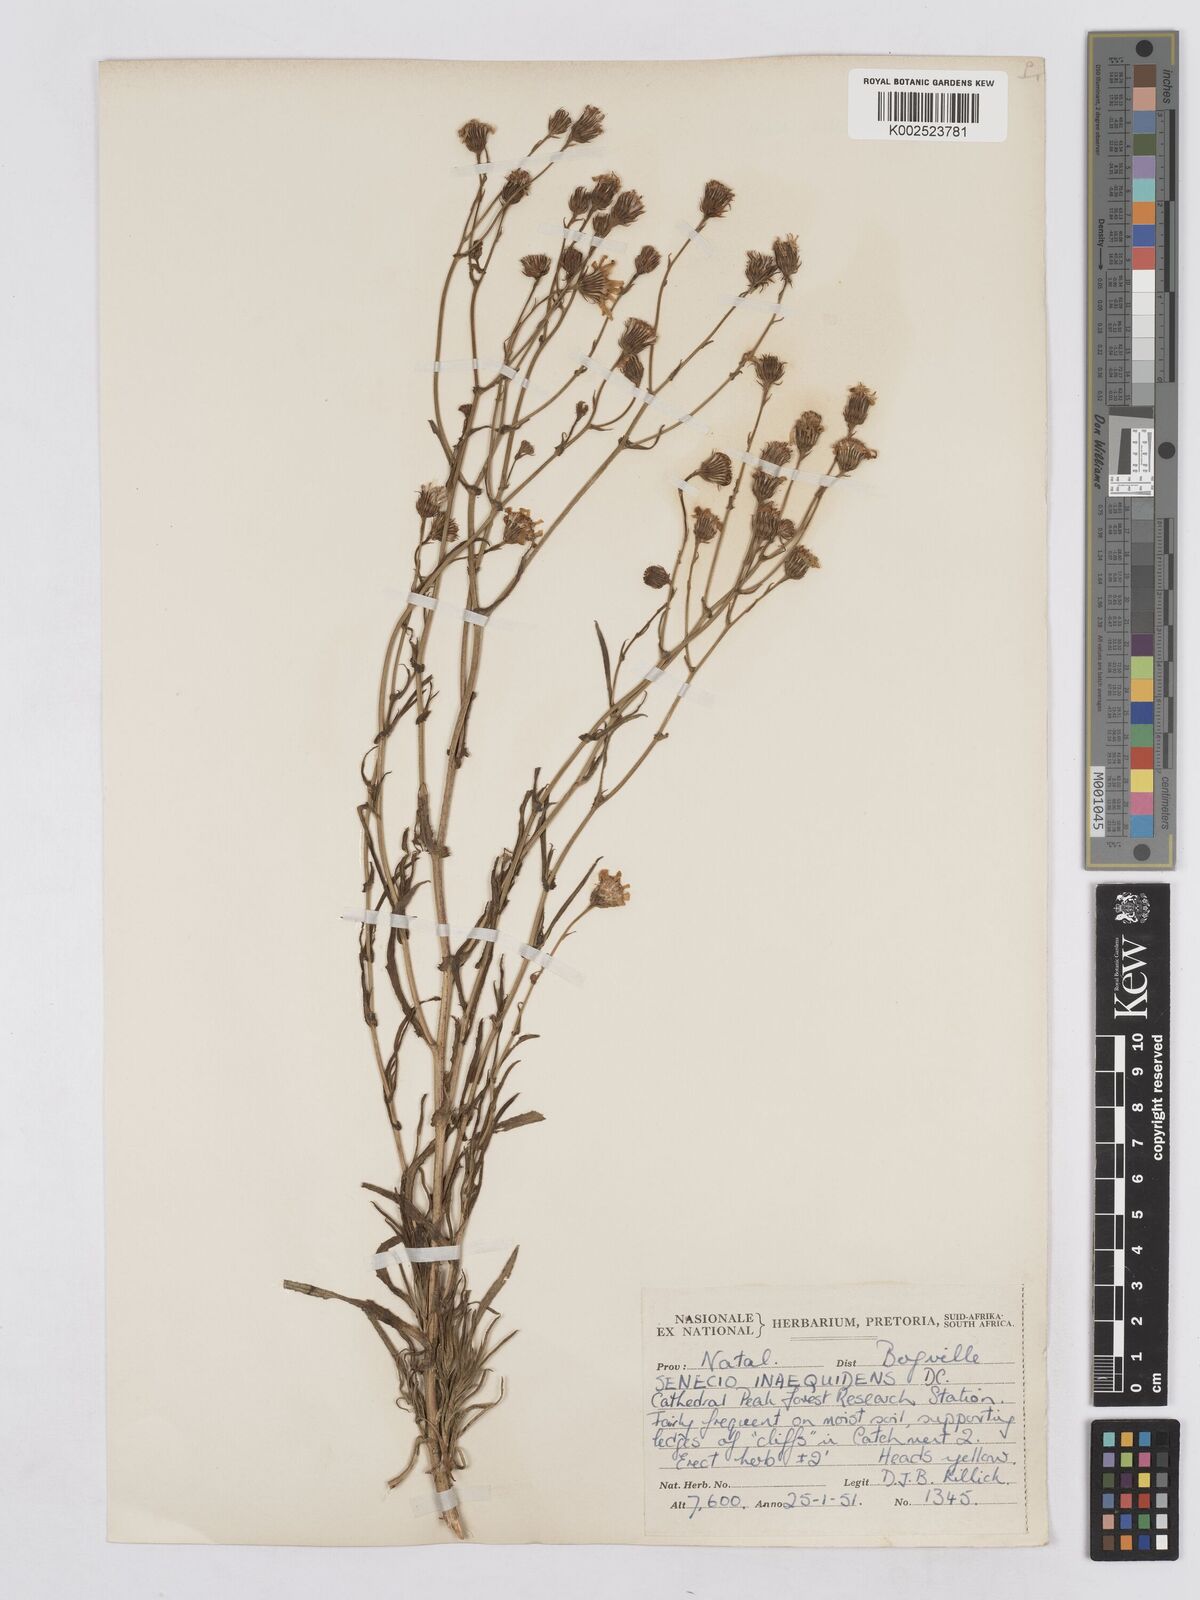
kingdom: Plantae
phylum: Tracheophyta
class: Magnoliopsida
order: Asterales
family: Asteraceae
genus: Senecio
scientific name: Senecio harveyanus
